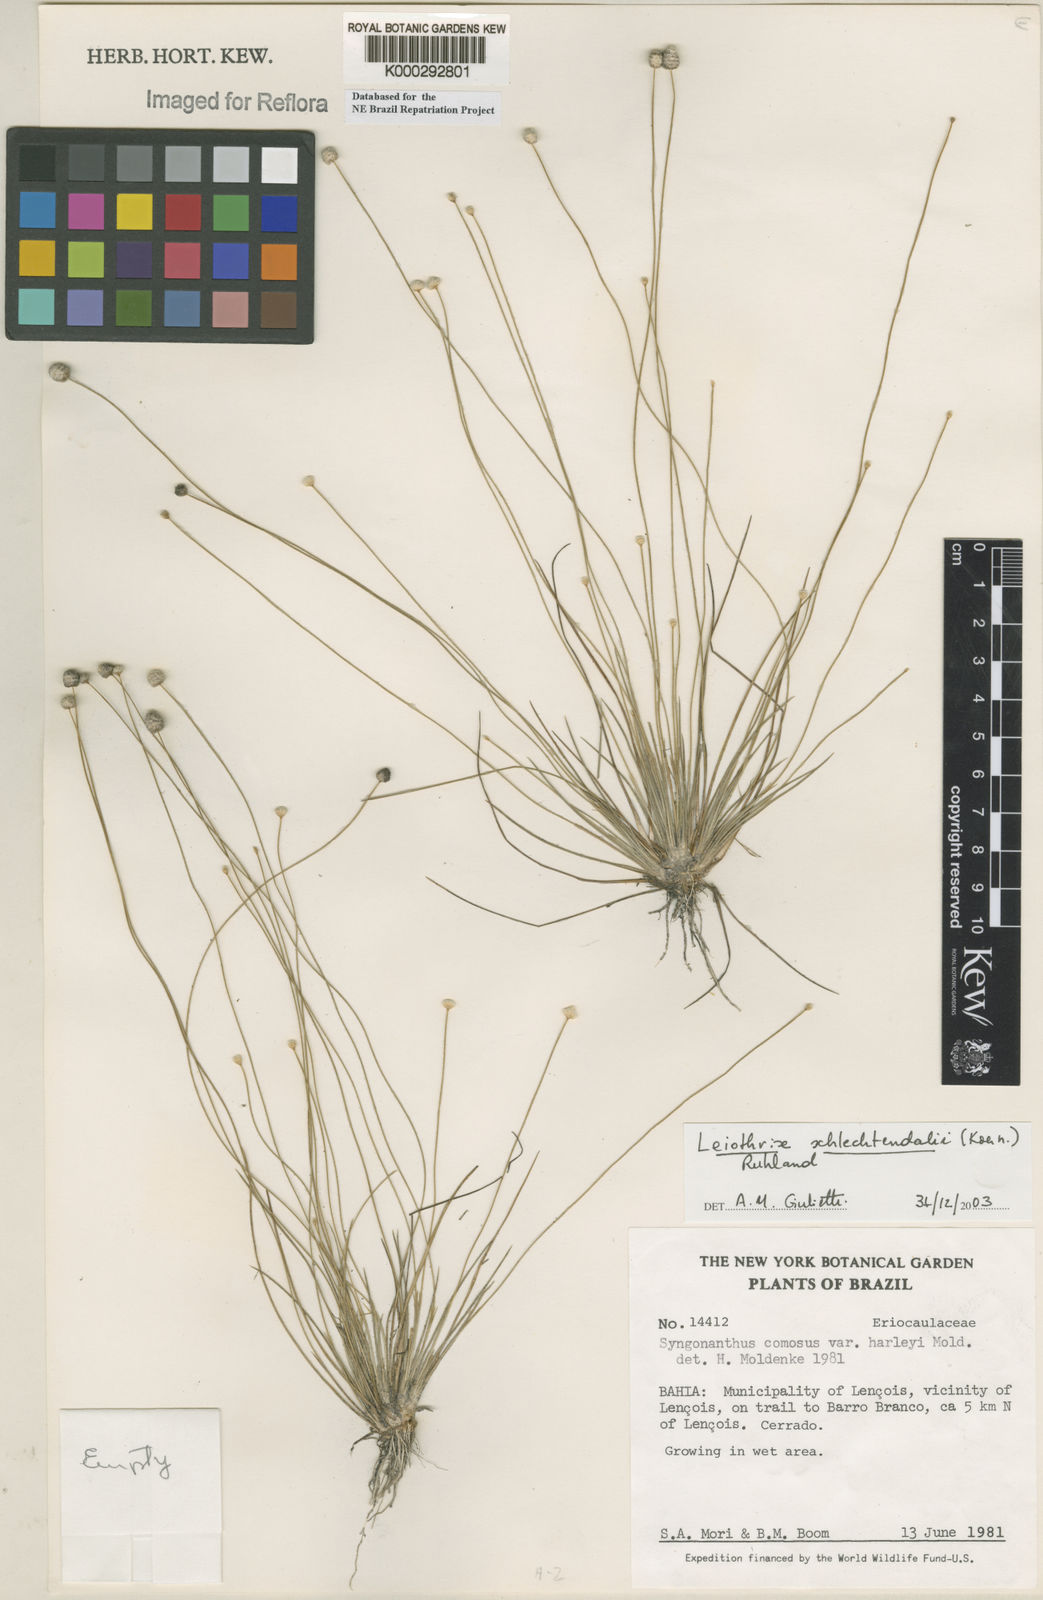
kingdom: Plantae
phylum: Tracheophyta
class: Liliopsida
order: Poales
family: Eriocaulaceae
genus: Leiothrix
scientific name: Leiothrix schlechtendalii
